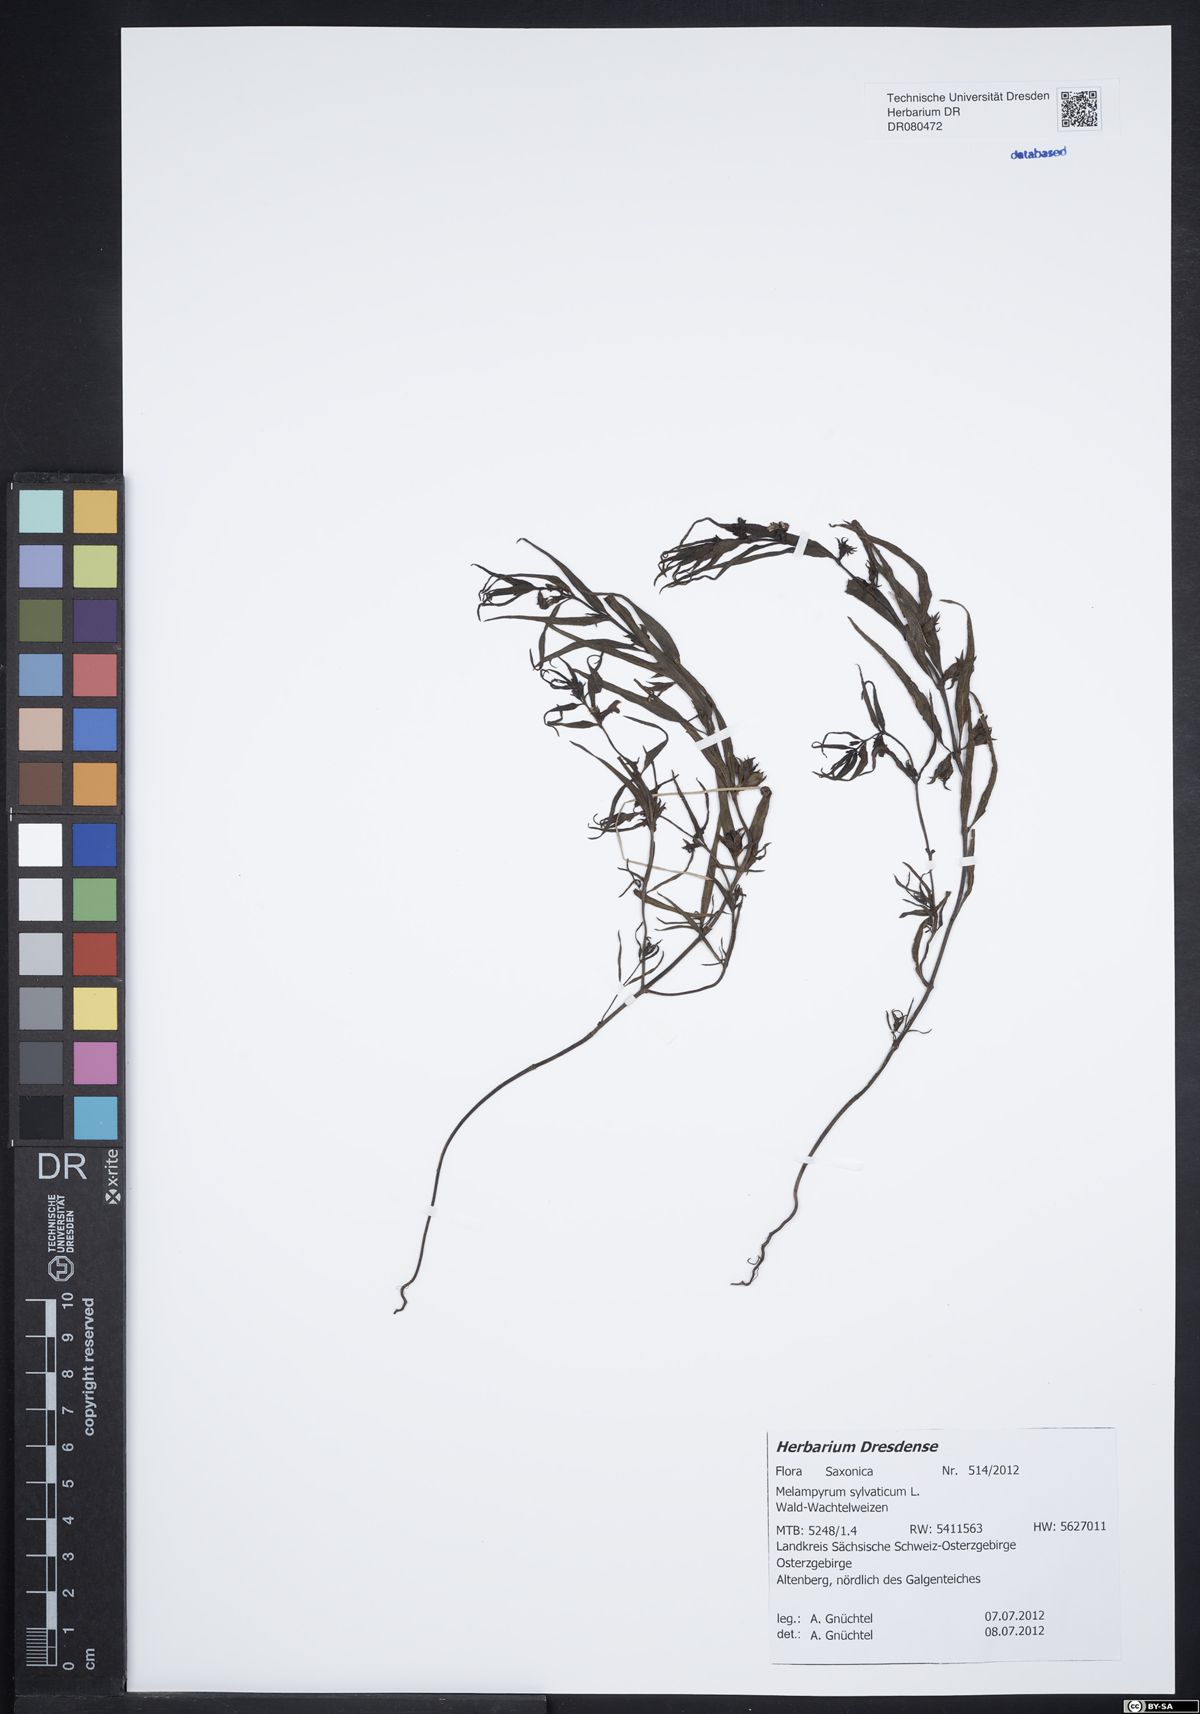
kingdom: Plantae
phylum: Tracheophyta
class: Magnoliopsida
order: Lamiales
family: Orobanchaceae
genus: Melampyrum
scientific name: Melampyrum sylvaticum
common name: Small cow-wheat
